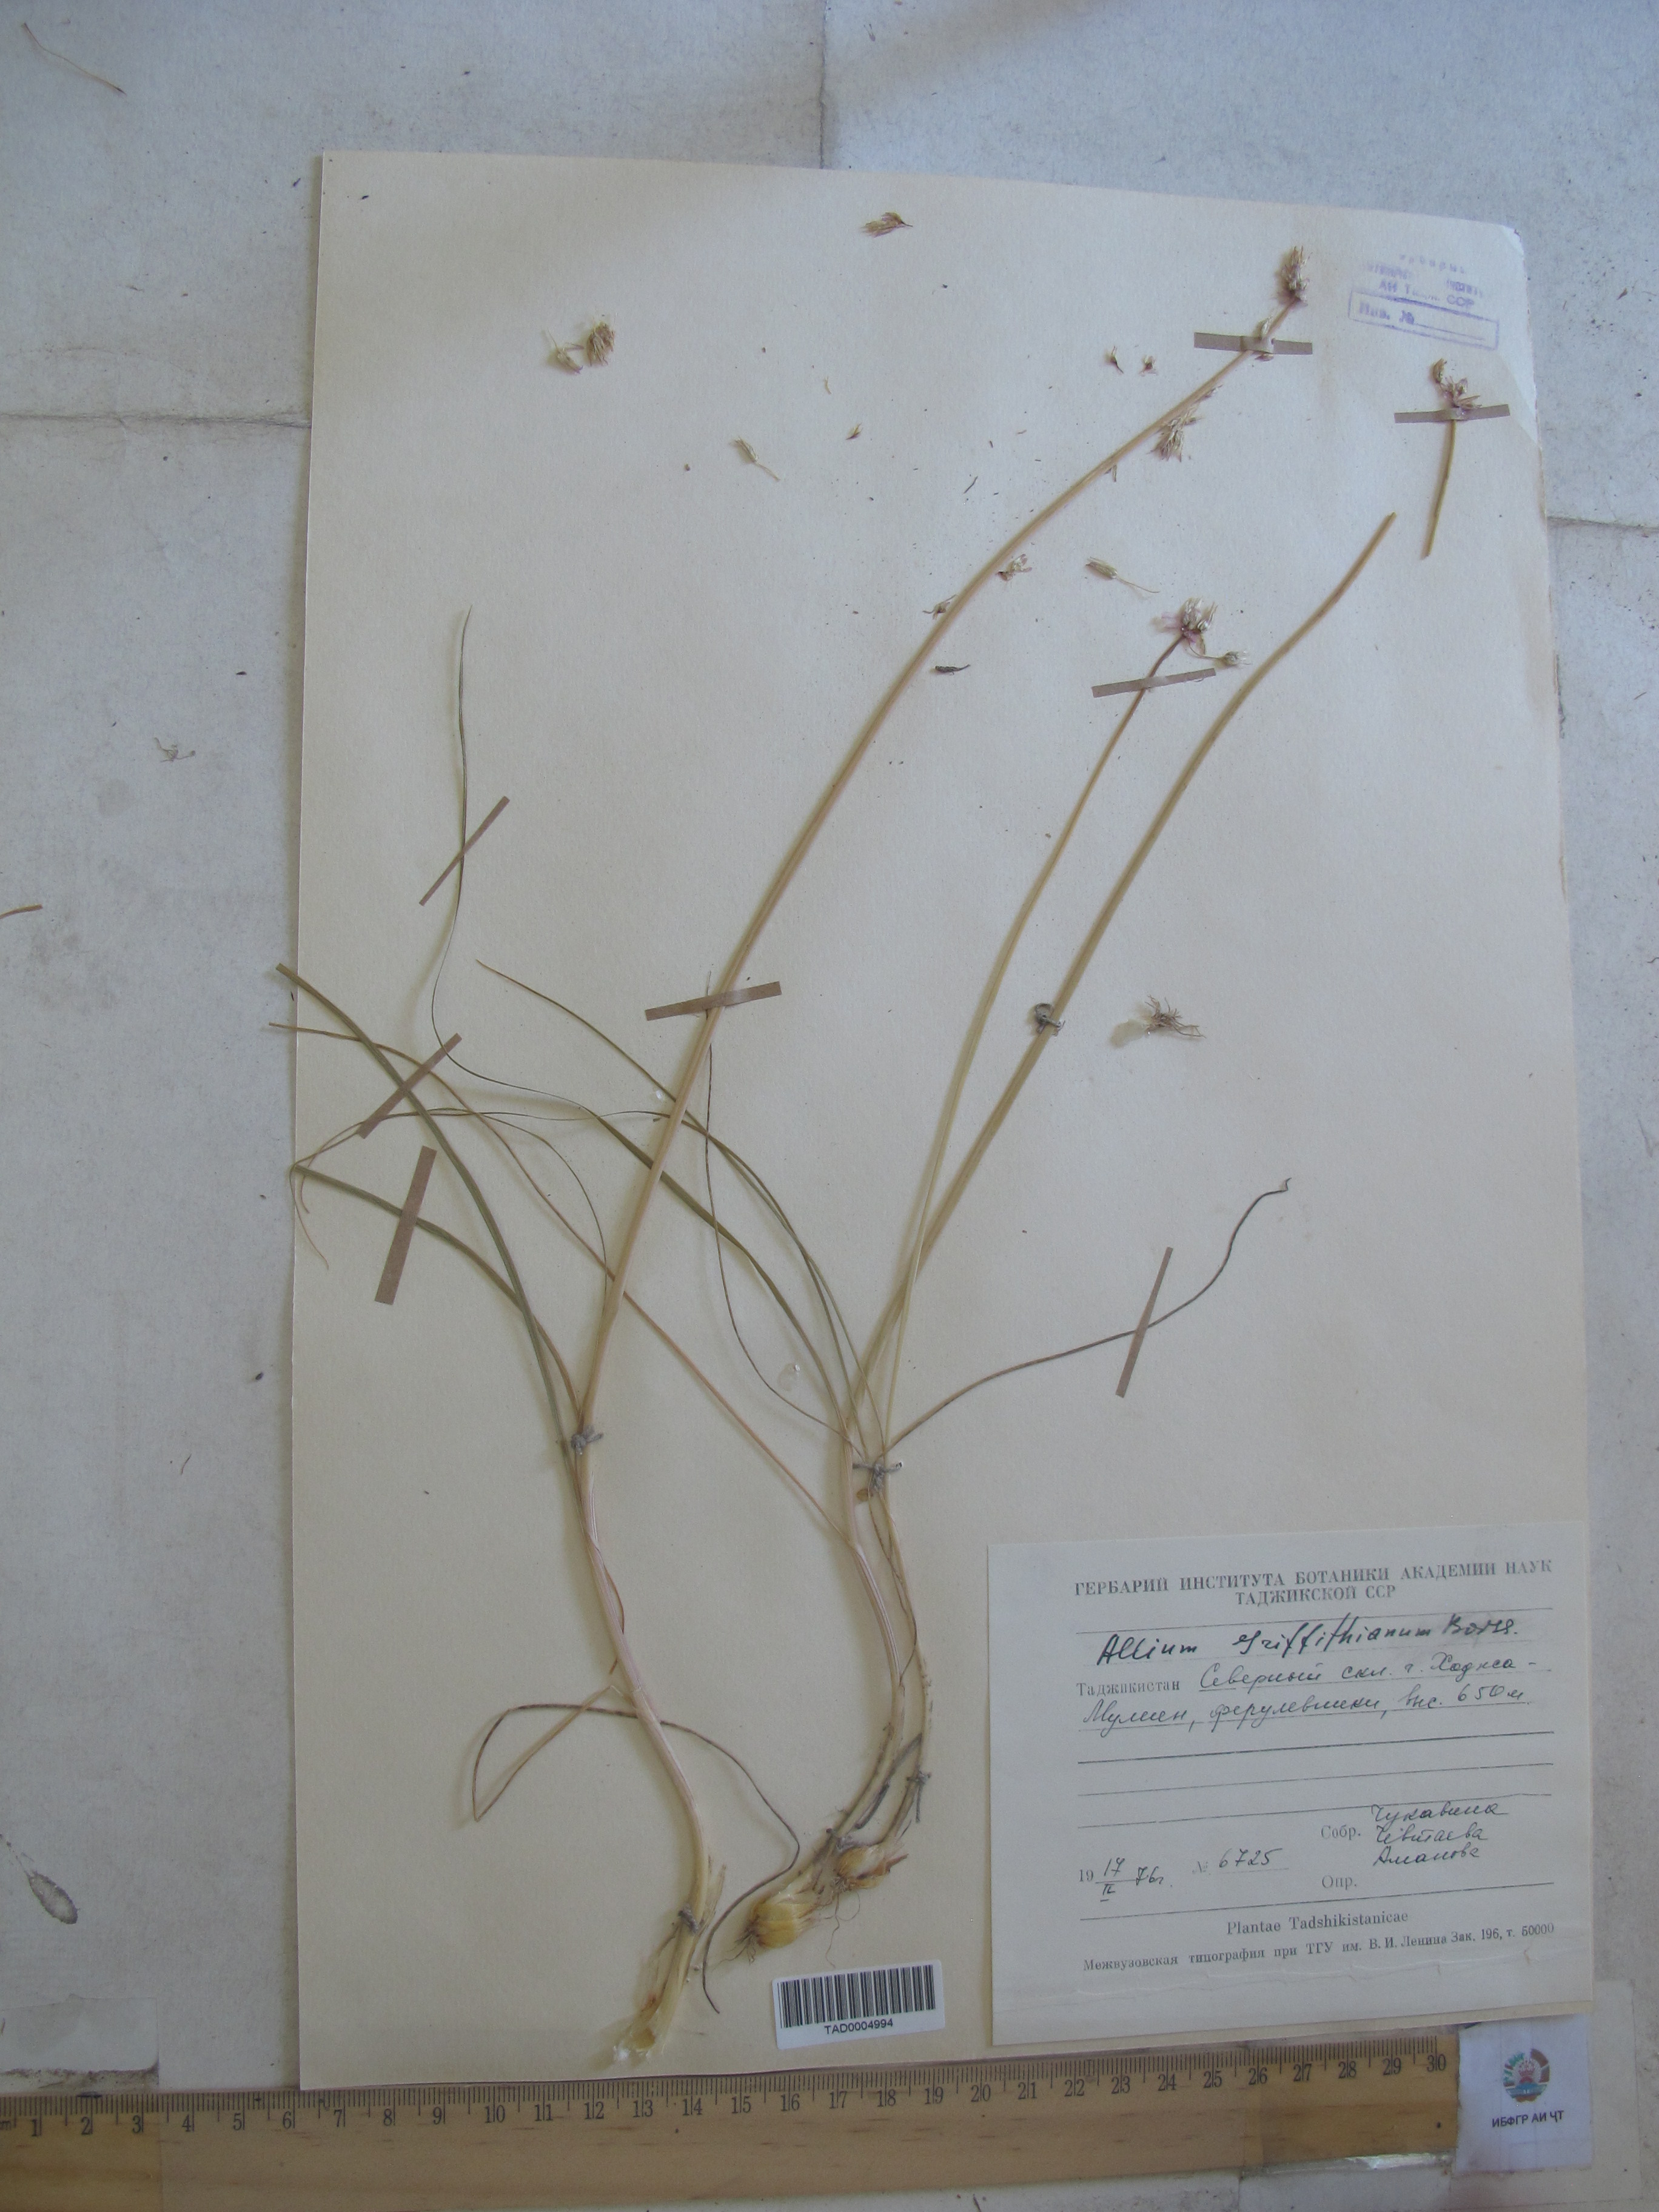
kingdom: Plantae
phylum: Tracheophyta
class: Liliopsida
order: Asparagales
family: Amaryllidaceae
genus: Allium
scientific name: Allium griffithianum
